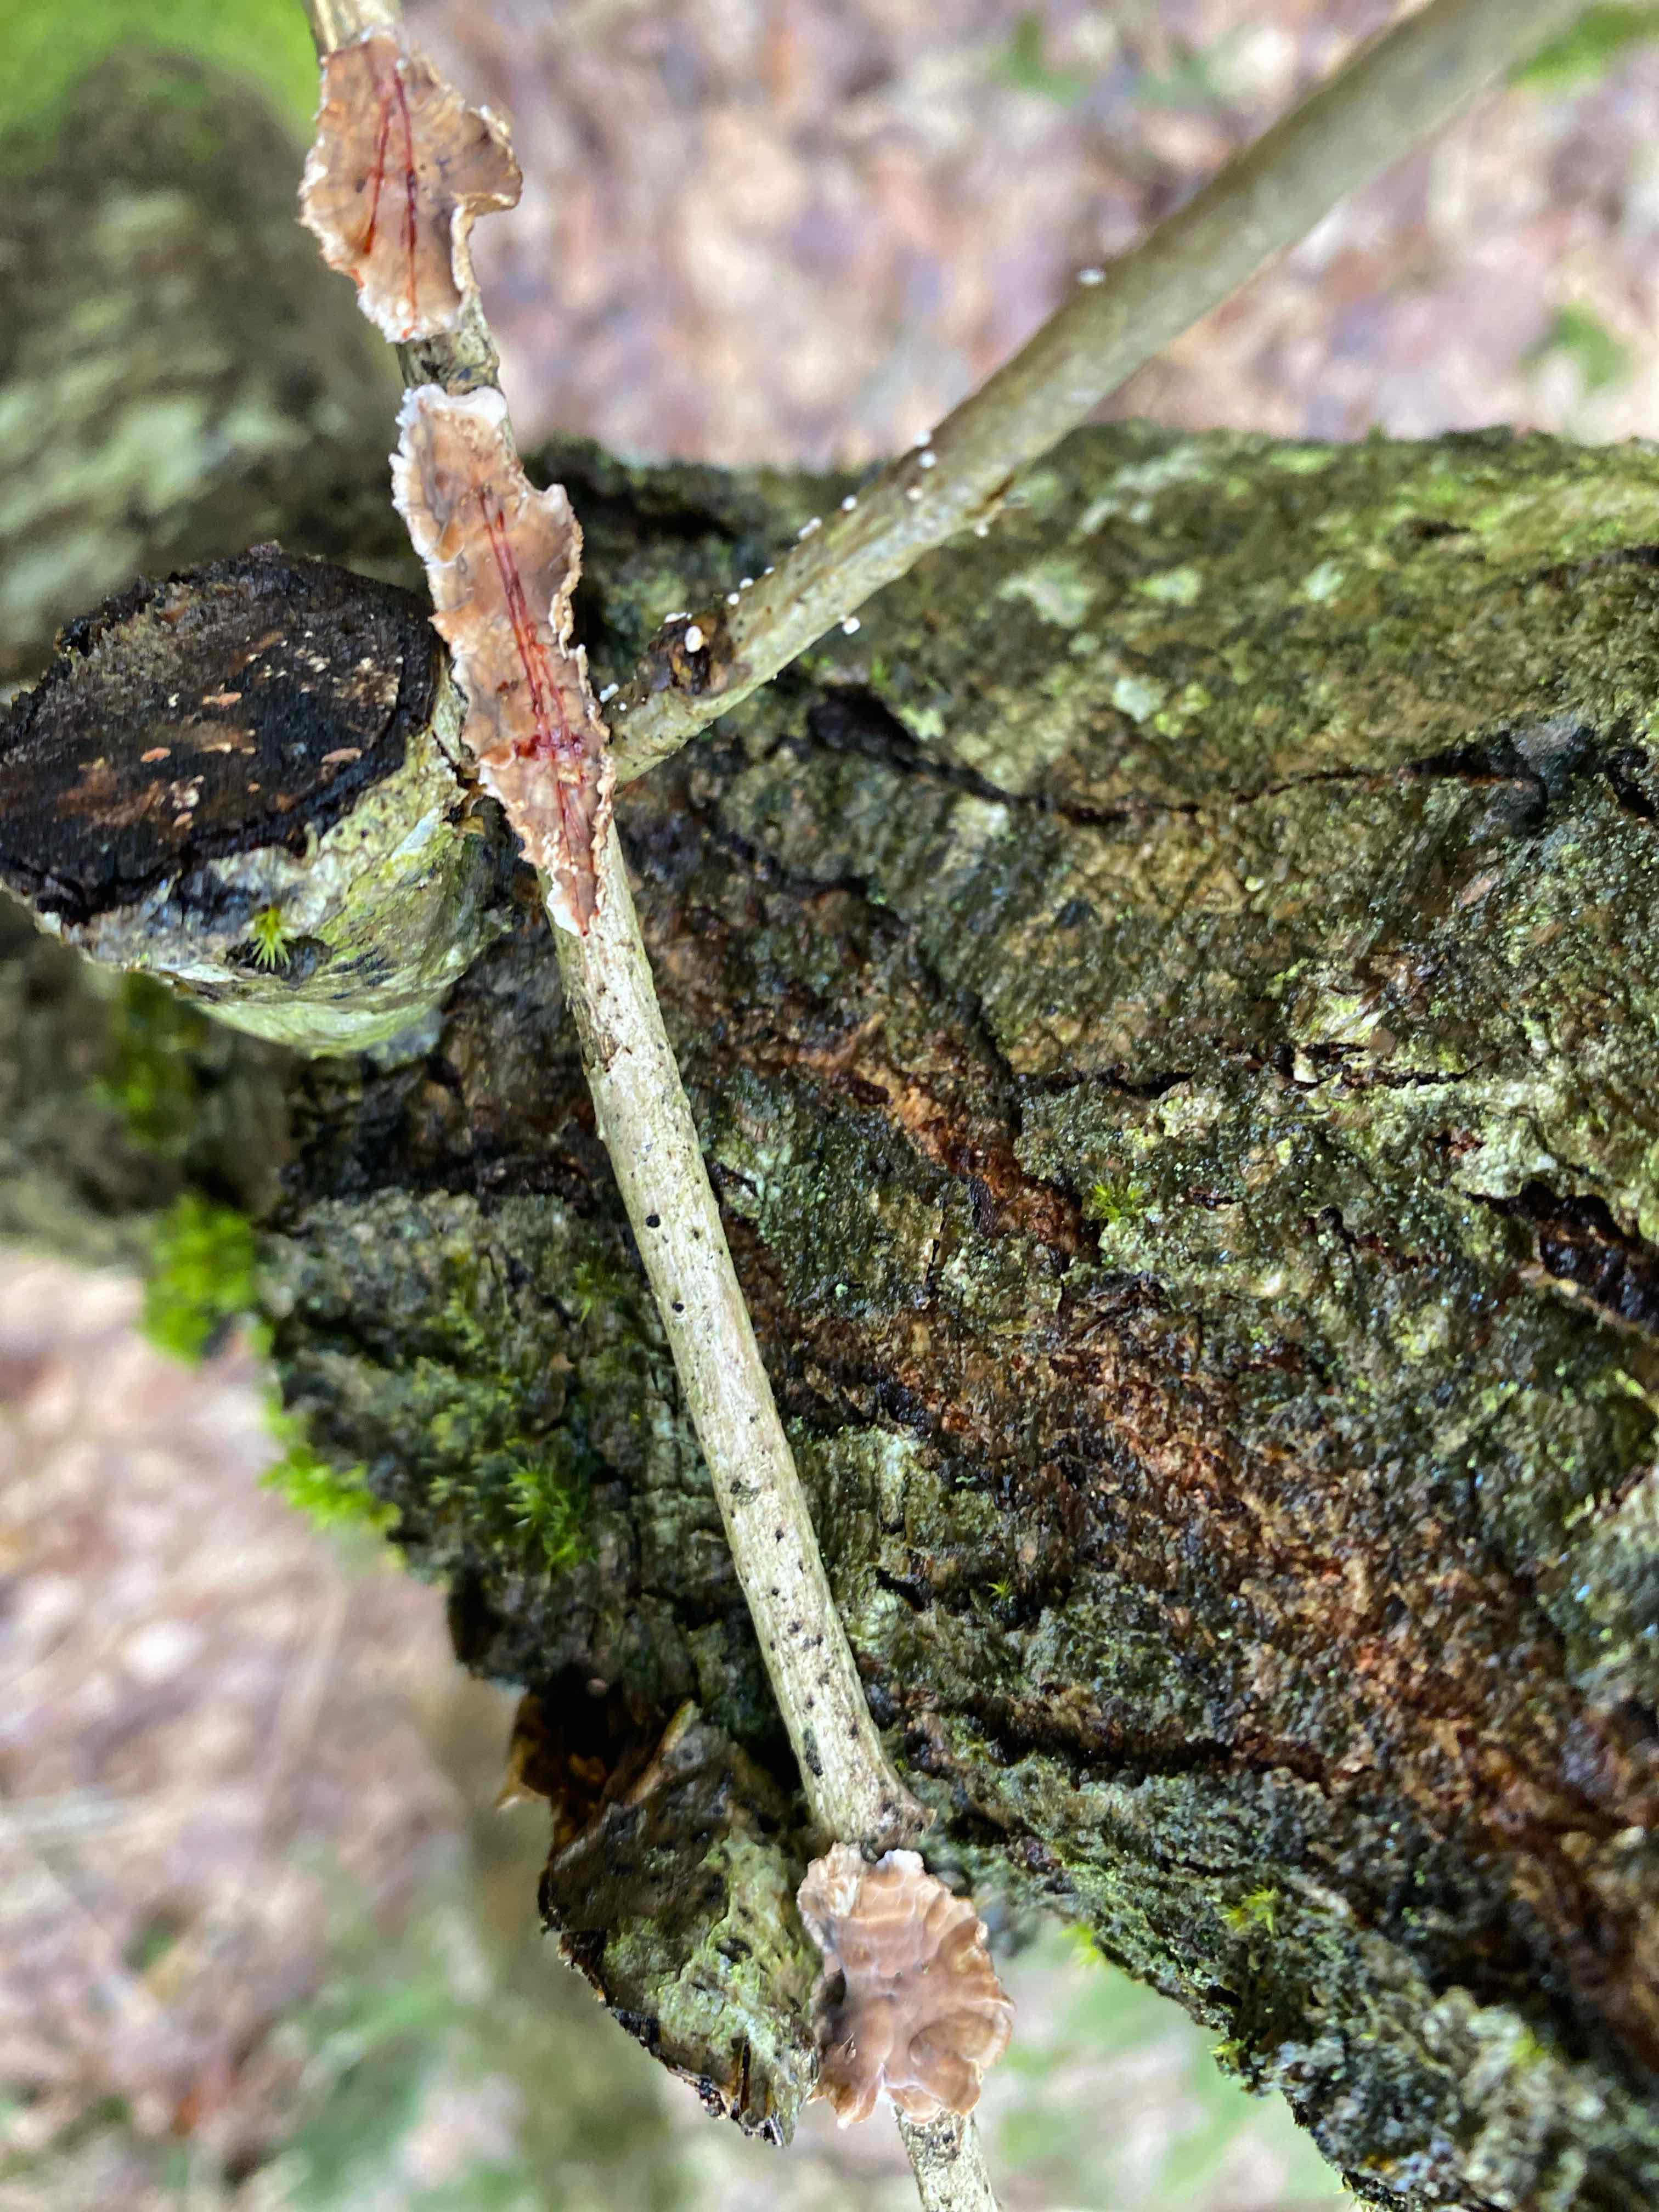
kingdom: Fungi
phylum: Basidiomycota
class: Agaricomycetes
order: Russulales
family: Stereaceae
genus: Stereum
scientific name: Stereum gausapatum
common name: tynd lædersvamp
